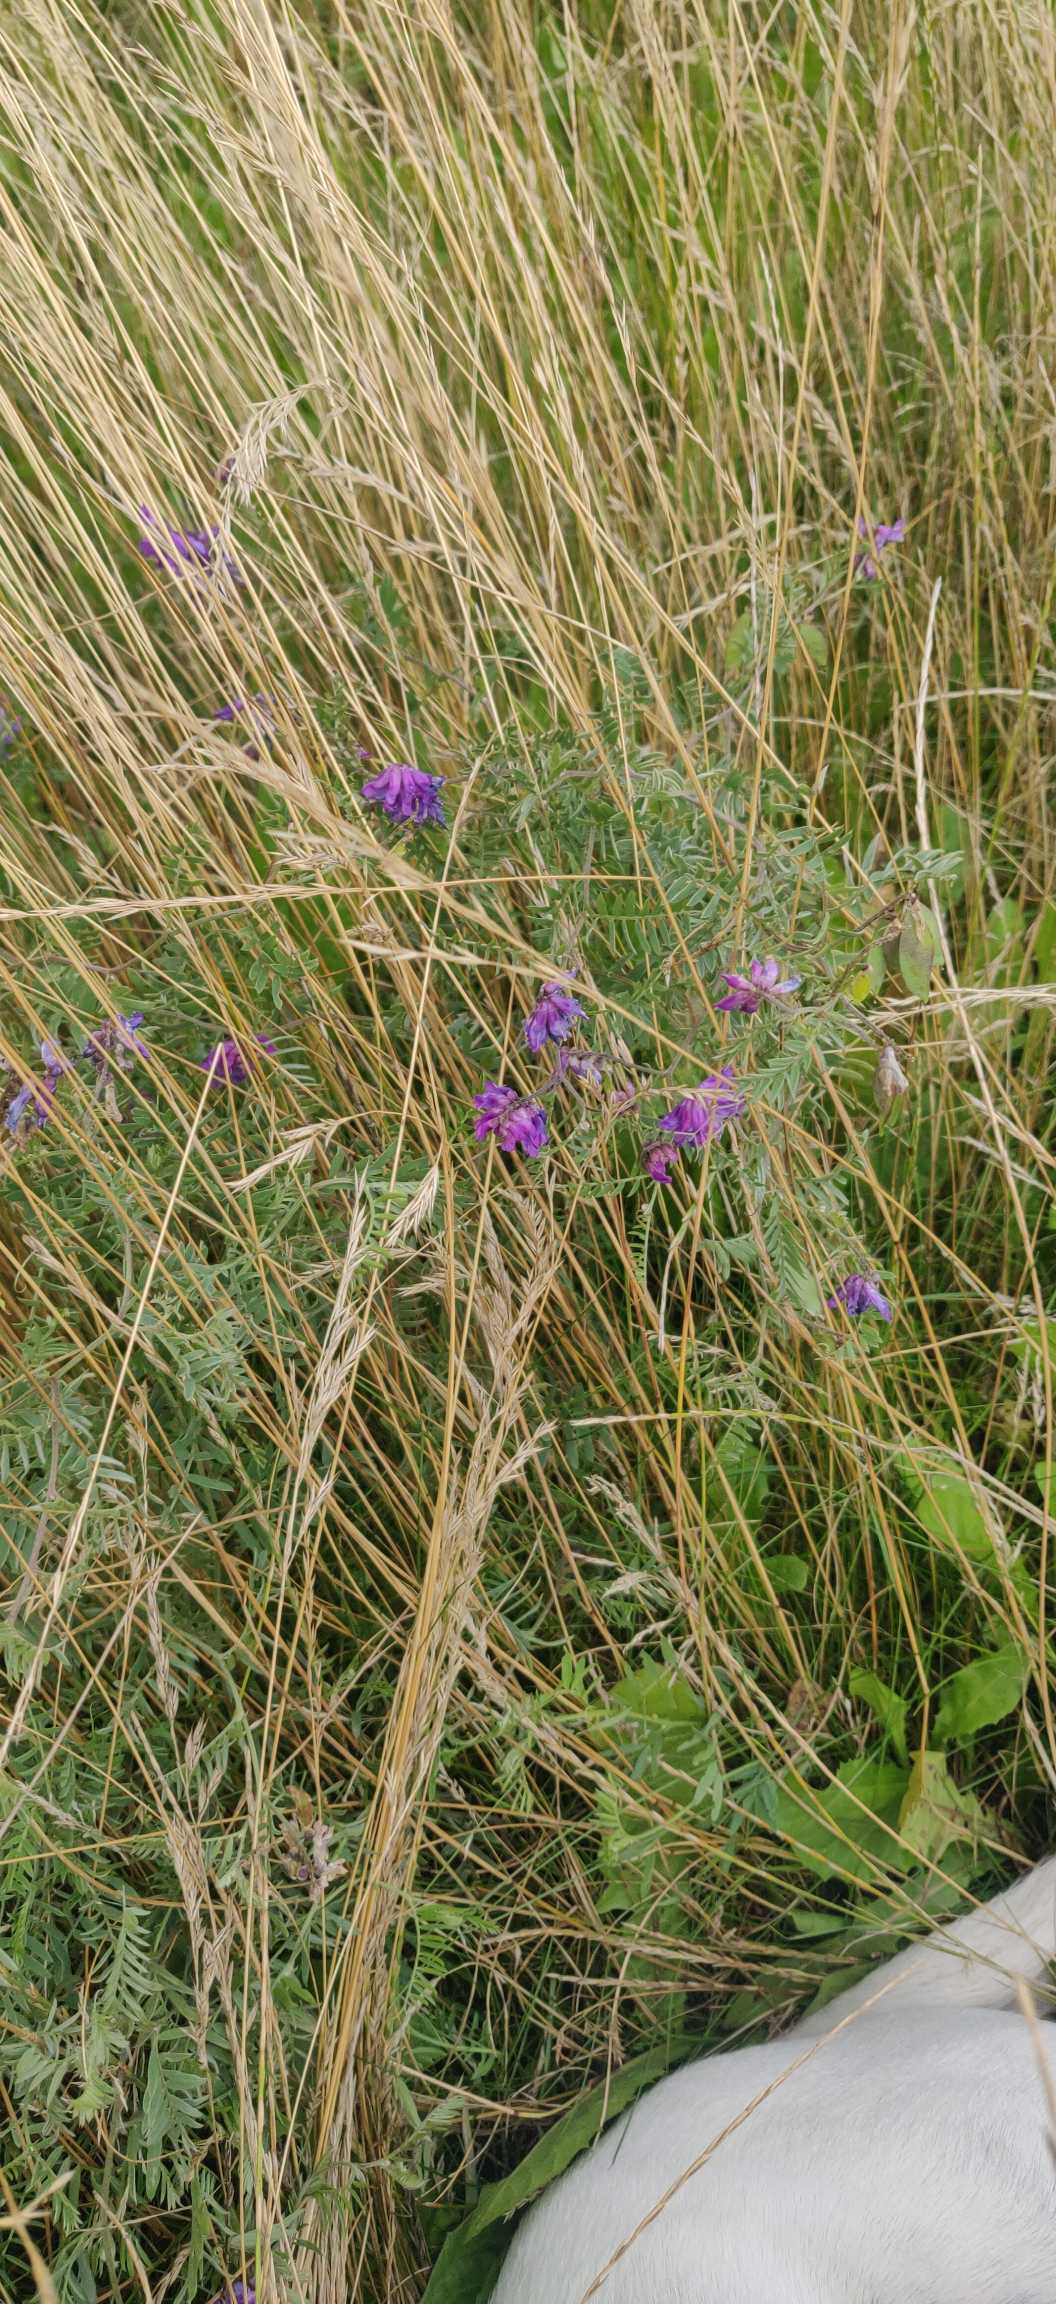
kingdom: Plantae
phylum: Tracheophyta
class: Magnoliopsida
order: Fabales
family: Fabaceae
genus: Vicia
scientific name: Vicia cracca
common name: Muse-vikke
